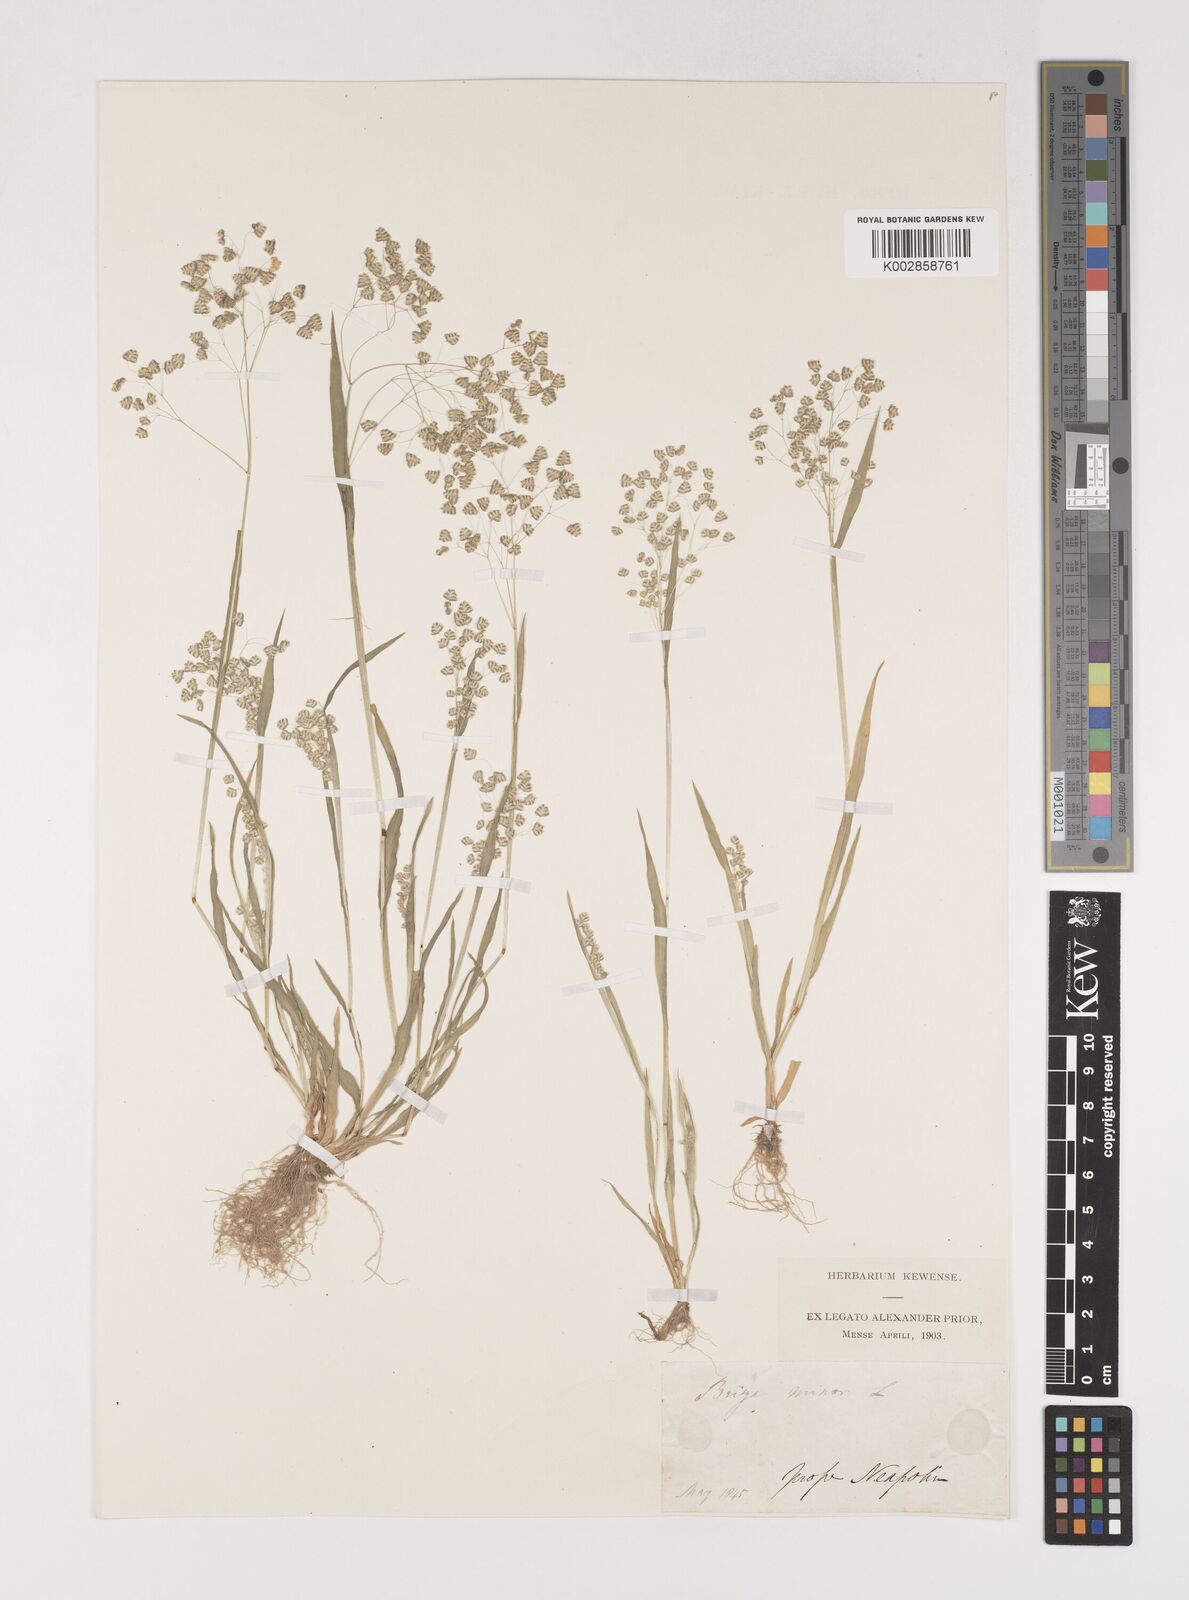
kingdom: Plantae
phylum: Tracheophyta
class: Liliopsida
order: Poales
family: Poaceae
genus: Briza
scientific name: Briza minor
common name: Lesser quaking-grass
